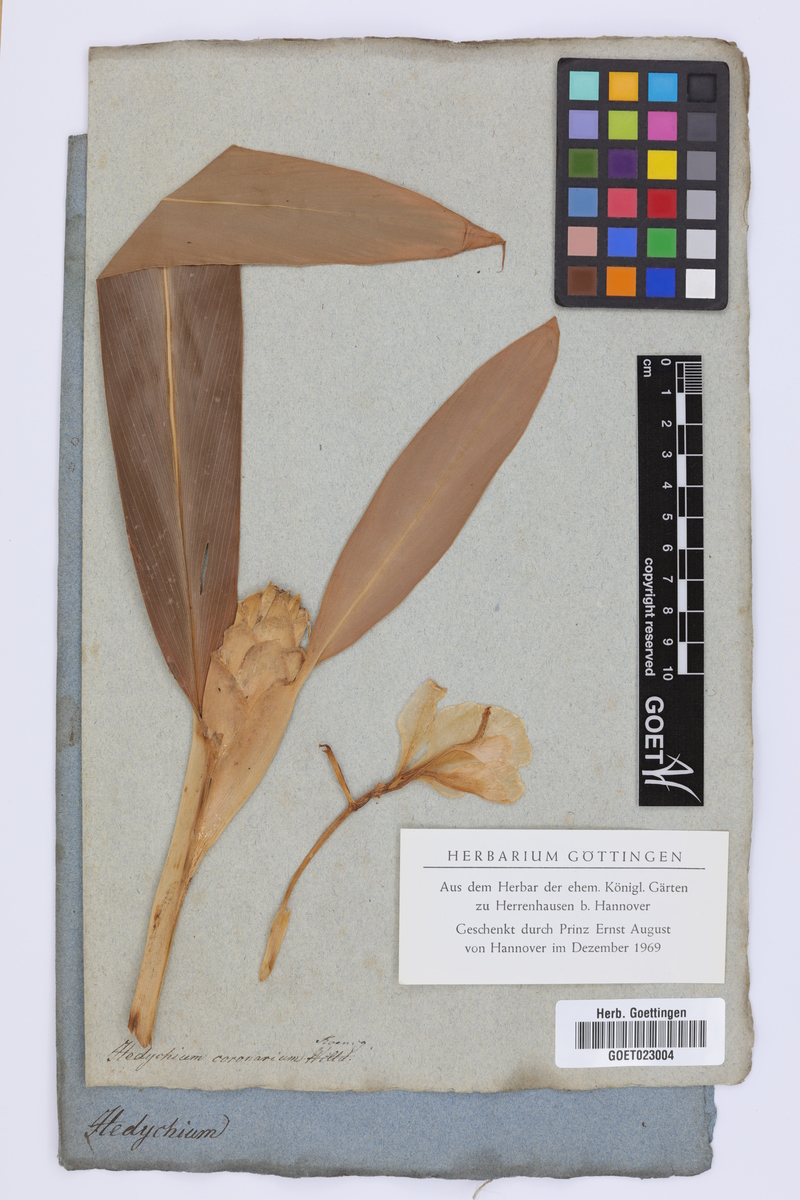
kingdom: Plantae
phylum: Tracheophyta
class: Liliopsida
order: Zingiberales
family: Zingiberaceae
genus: Hedychium
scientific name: Hedychium coronarium
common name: White garland-lily
